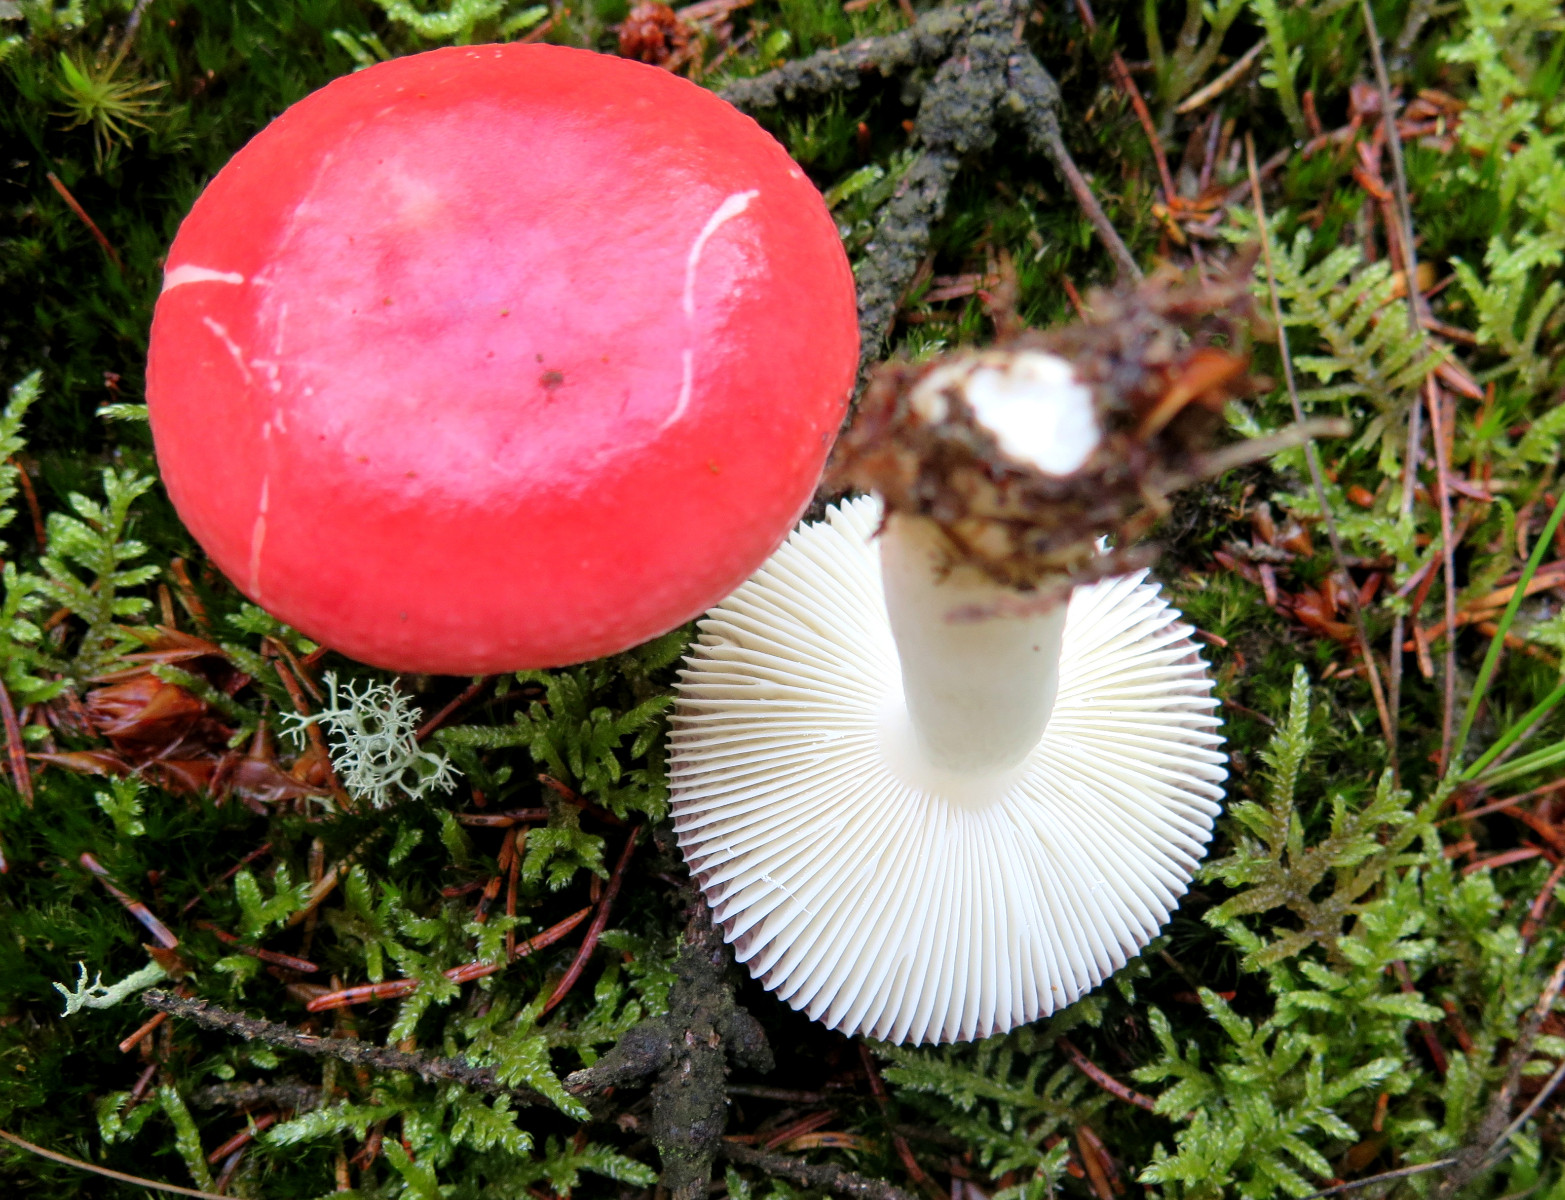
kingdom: Fungi
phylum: Basidiomycota
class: Agaricomycetes
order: Russulales
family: Russulaceae
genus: Russula
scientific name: Russula emetica
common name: stor gift-skørhat
